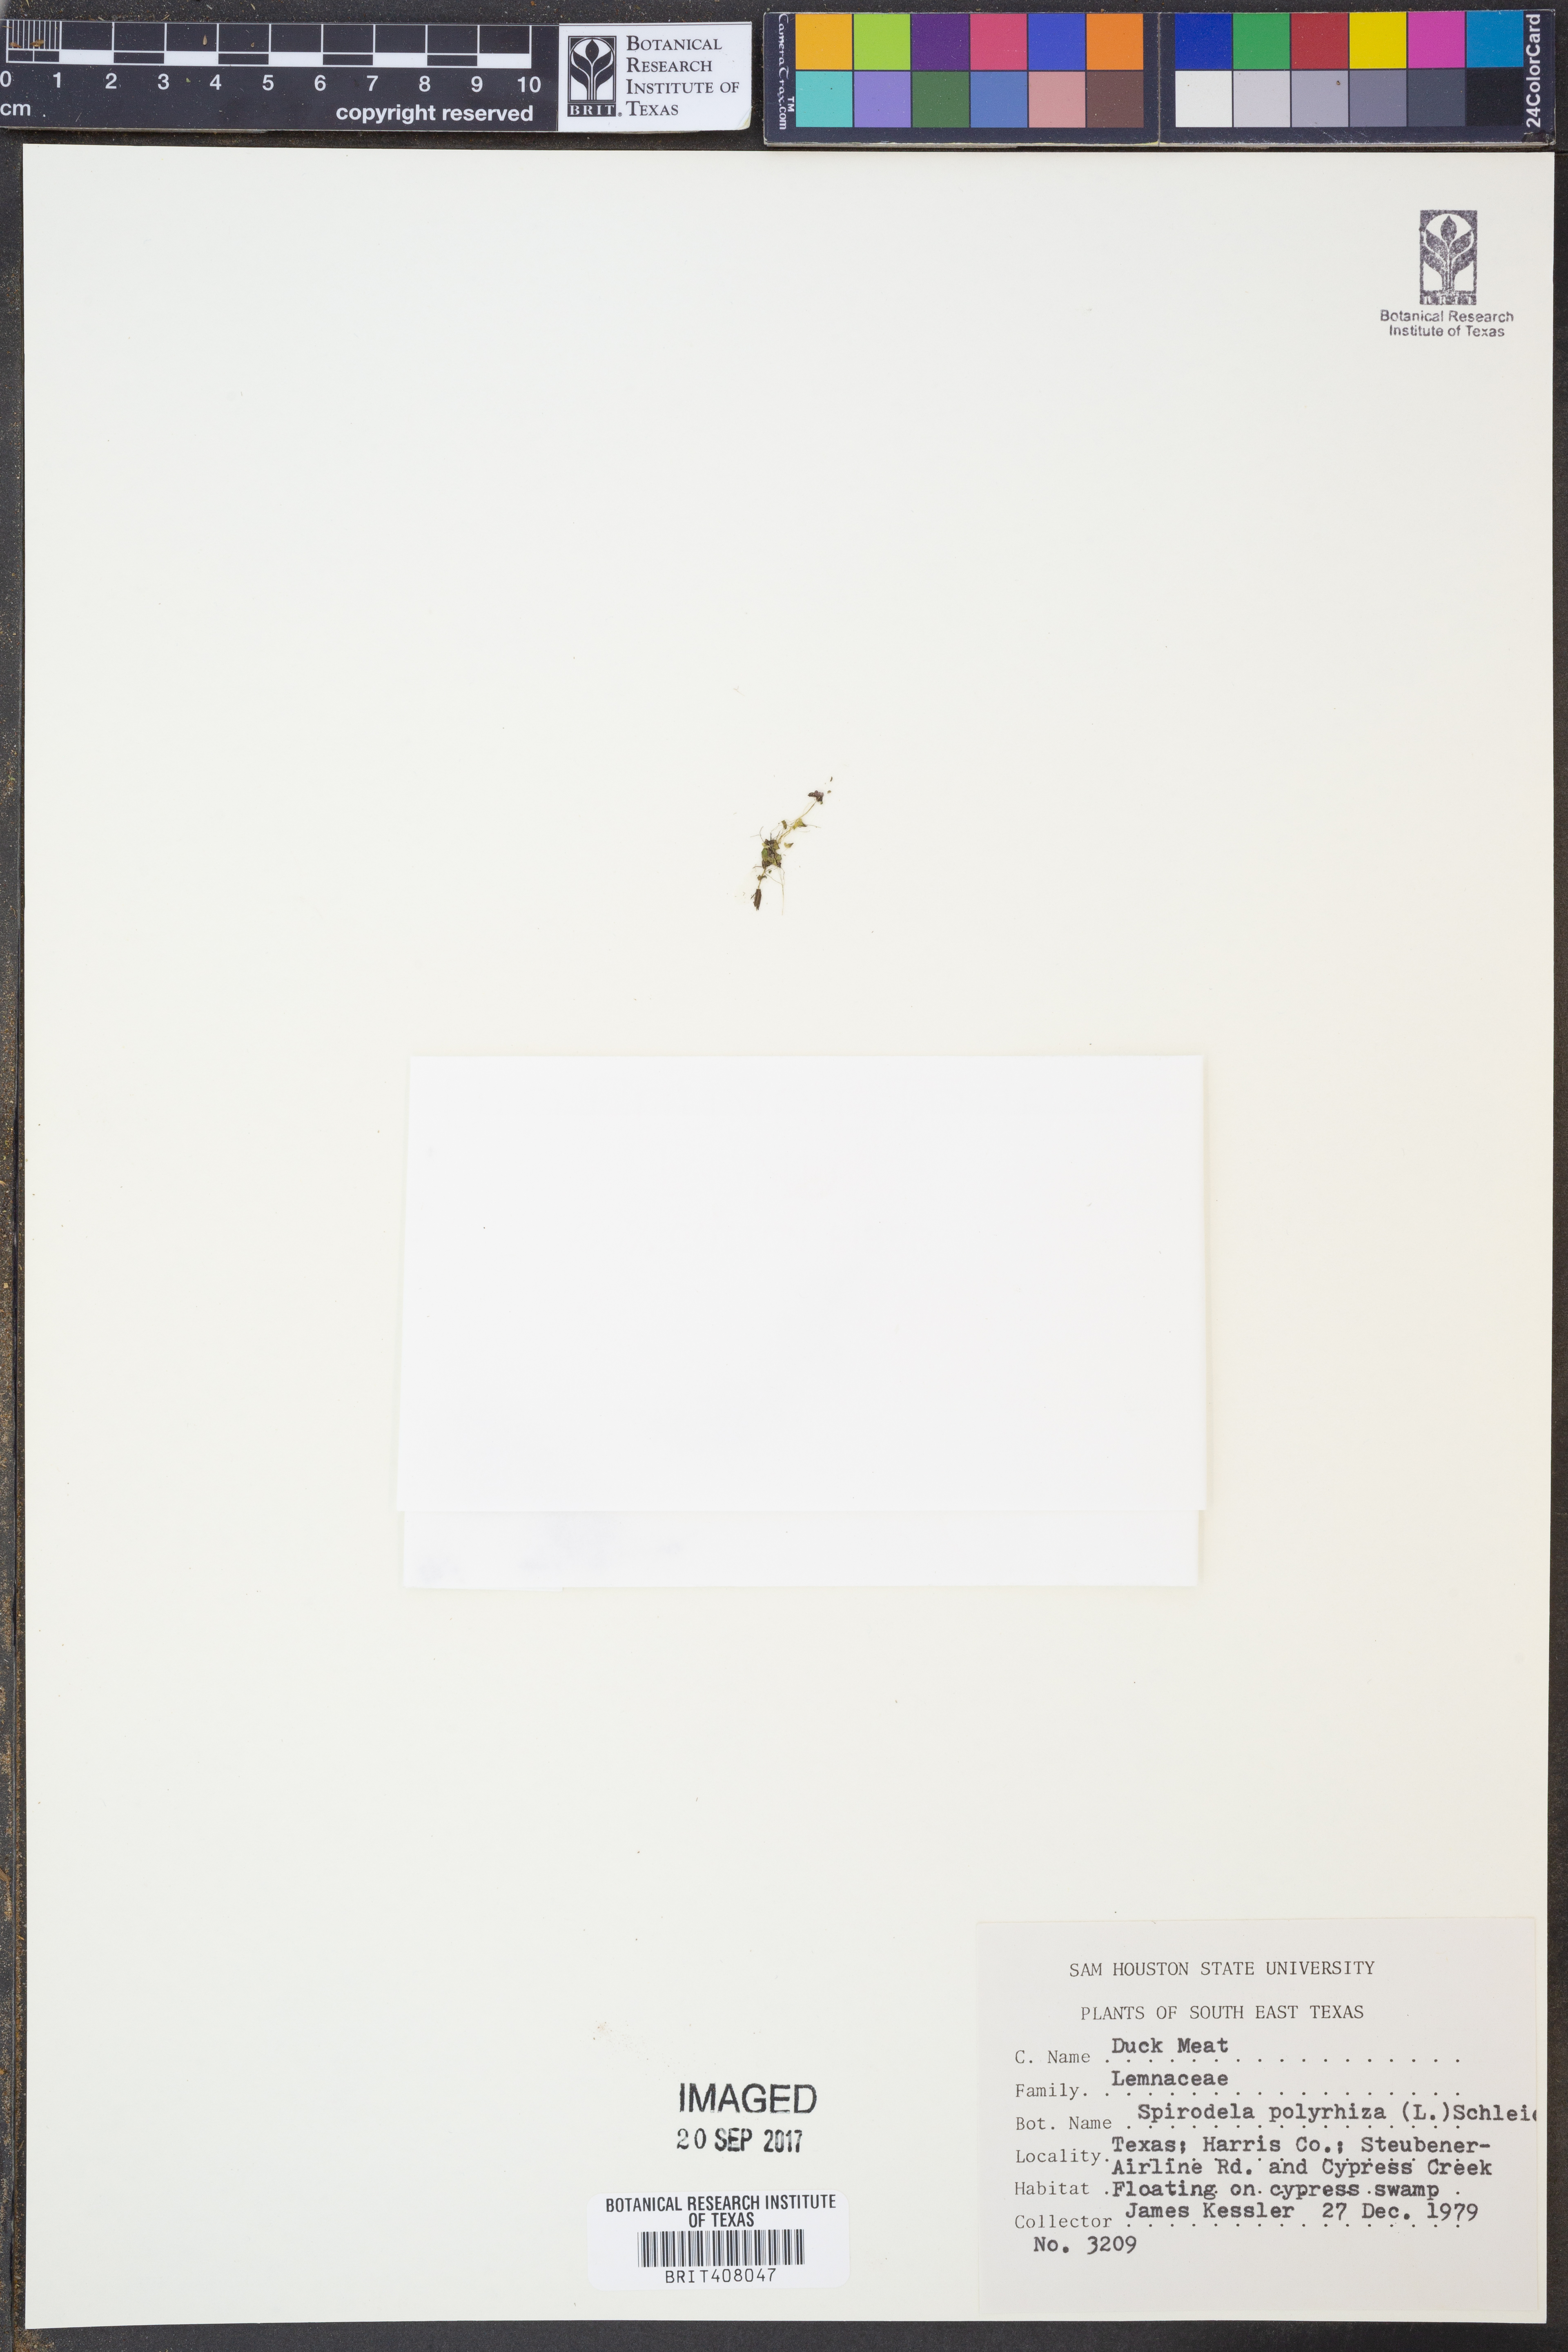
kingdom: Plantae
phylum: Tracheophyta
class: Liliopsida
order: Alismatales
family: Araceae
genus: Spirodela
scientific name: Spirodela polyrhiza
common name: Great duckweed
